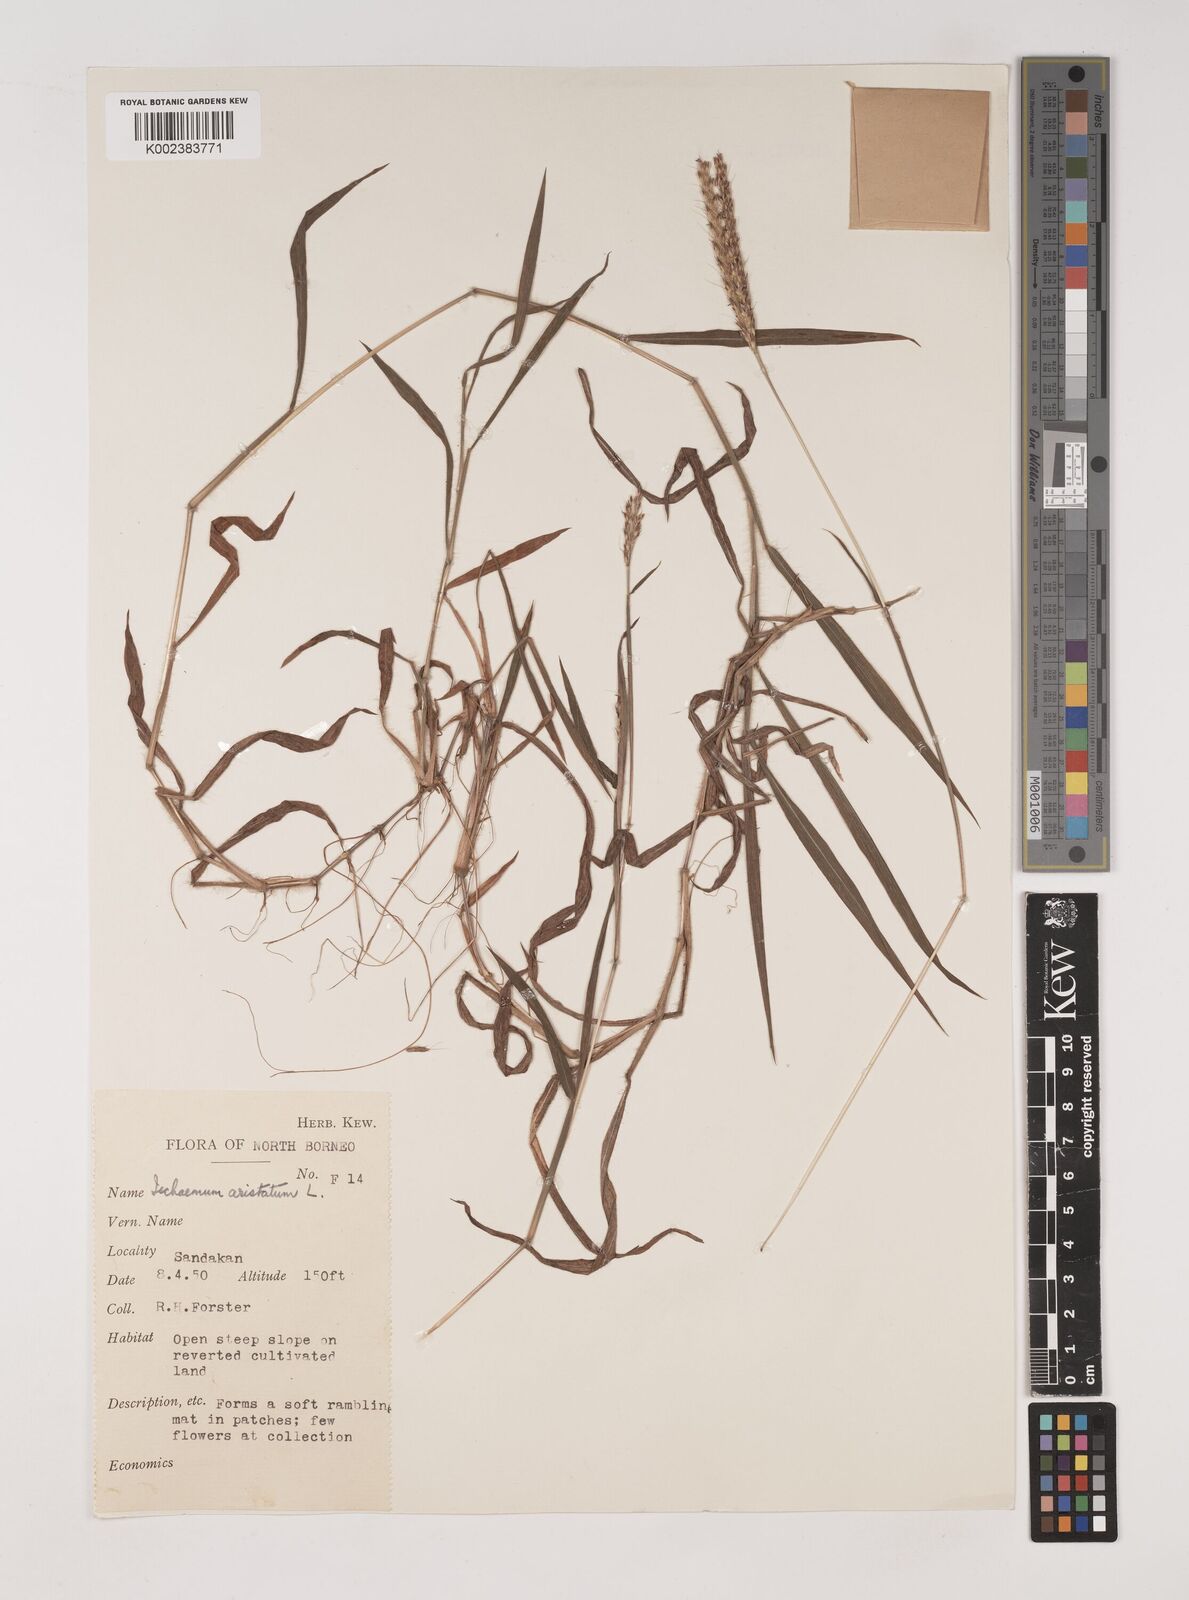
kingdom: Plantae
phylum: Tracheophyta
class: Liliopsida
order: Poales
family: Poaceae
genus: Polytrias
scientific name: Polytrias indica
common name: Indian murainagrass
